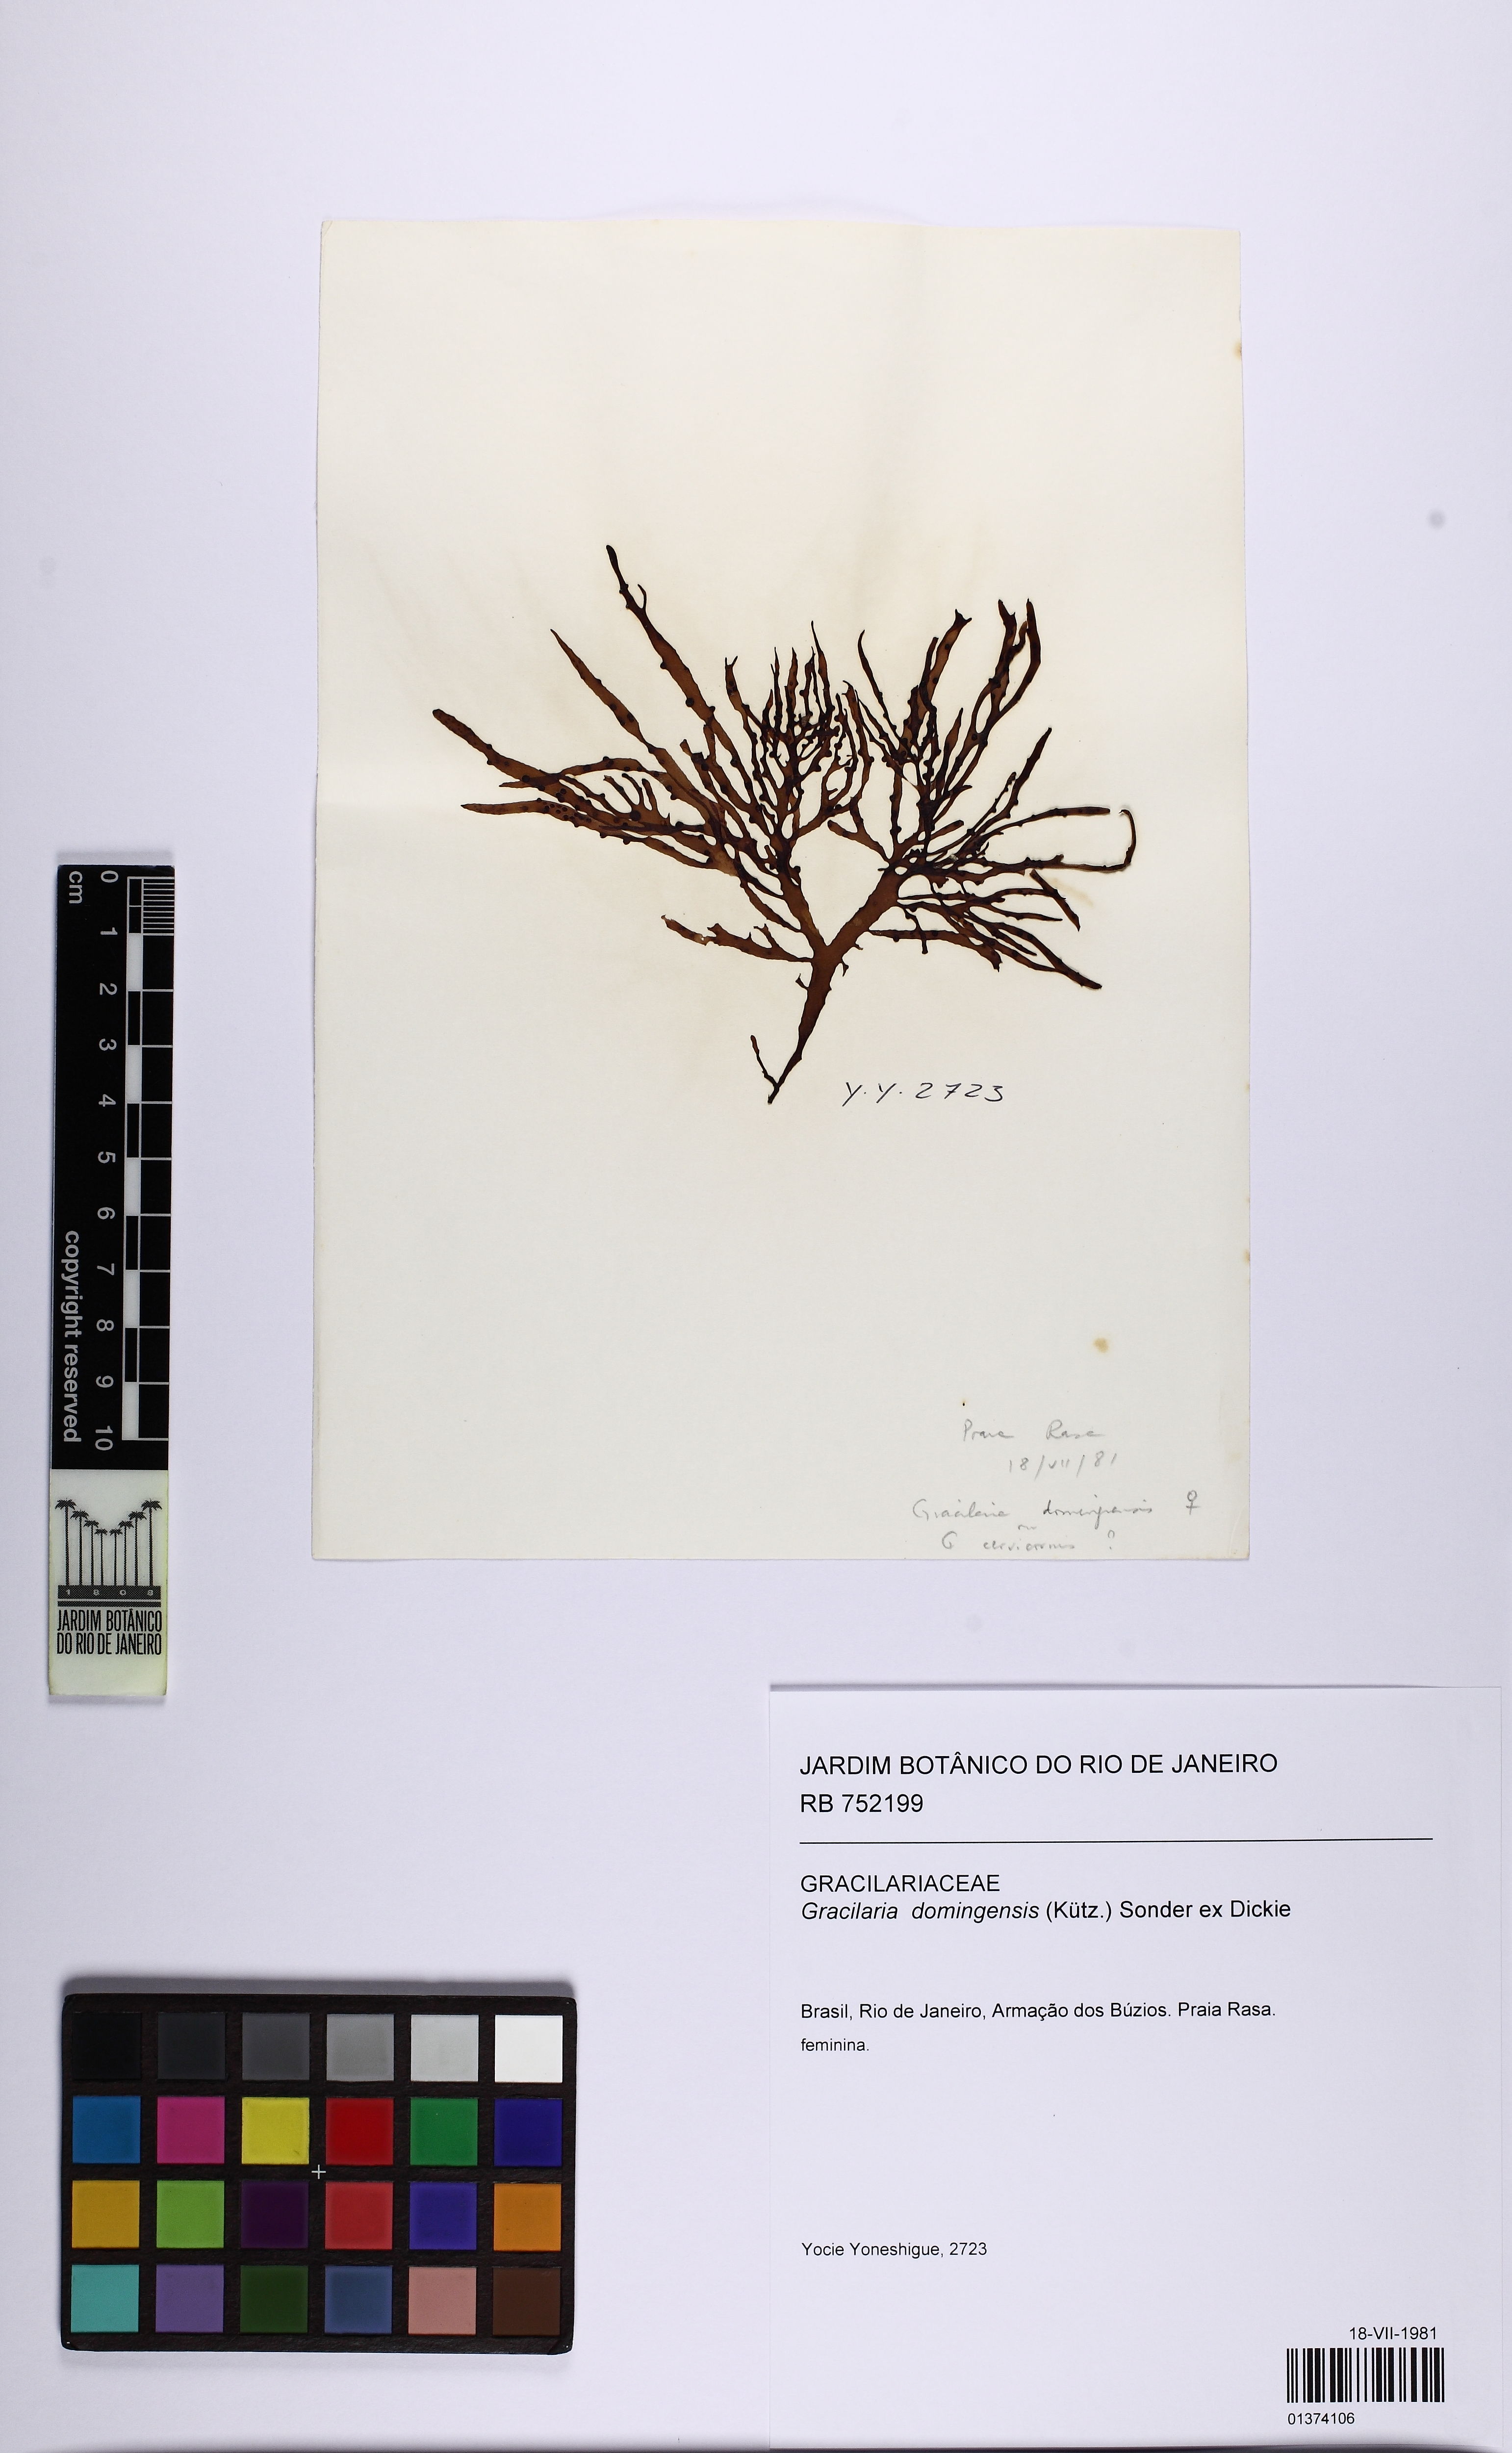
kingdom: Plantae
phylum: Rhodophyta
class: Florideophyceae
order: Gracilariales
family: Gracilariaceae
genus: Gracilaria
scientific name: Gracilaria domingensis
